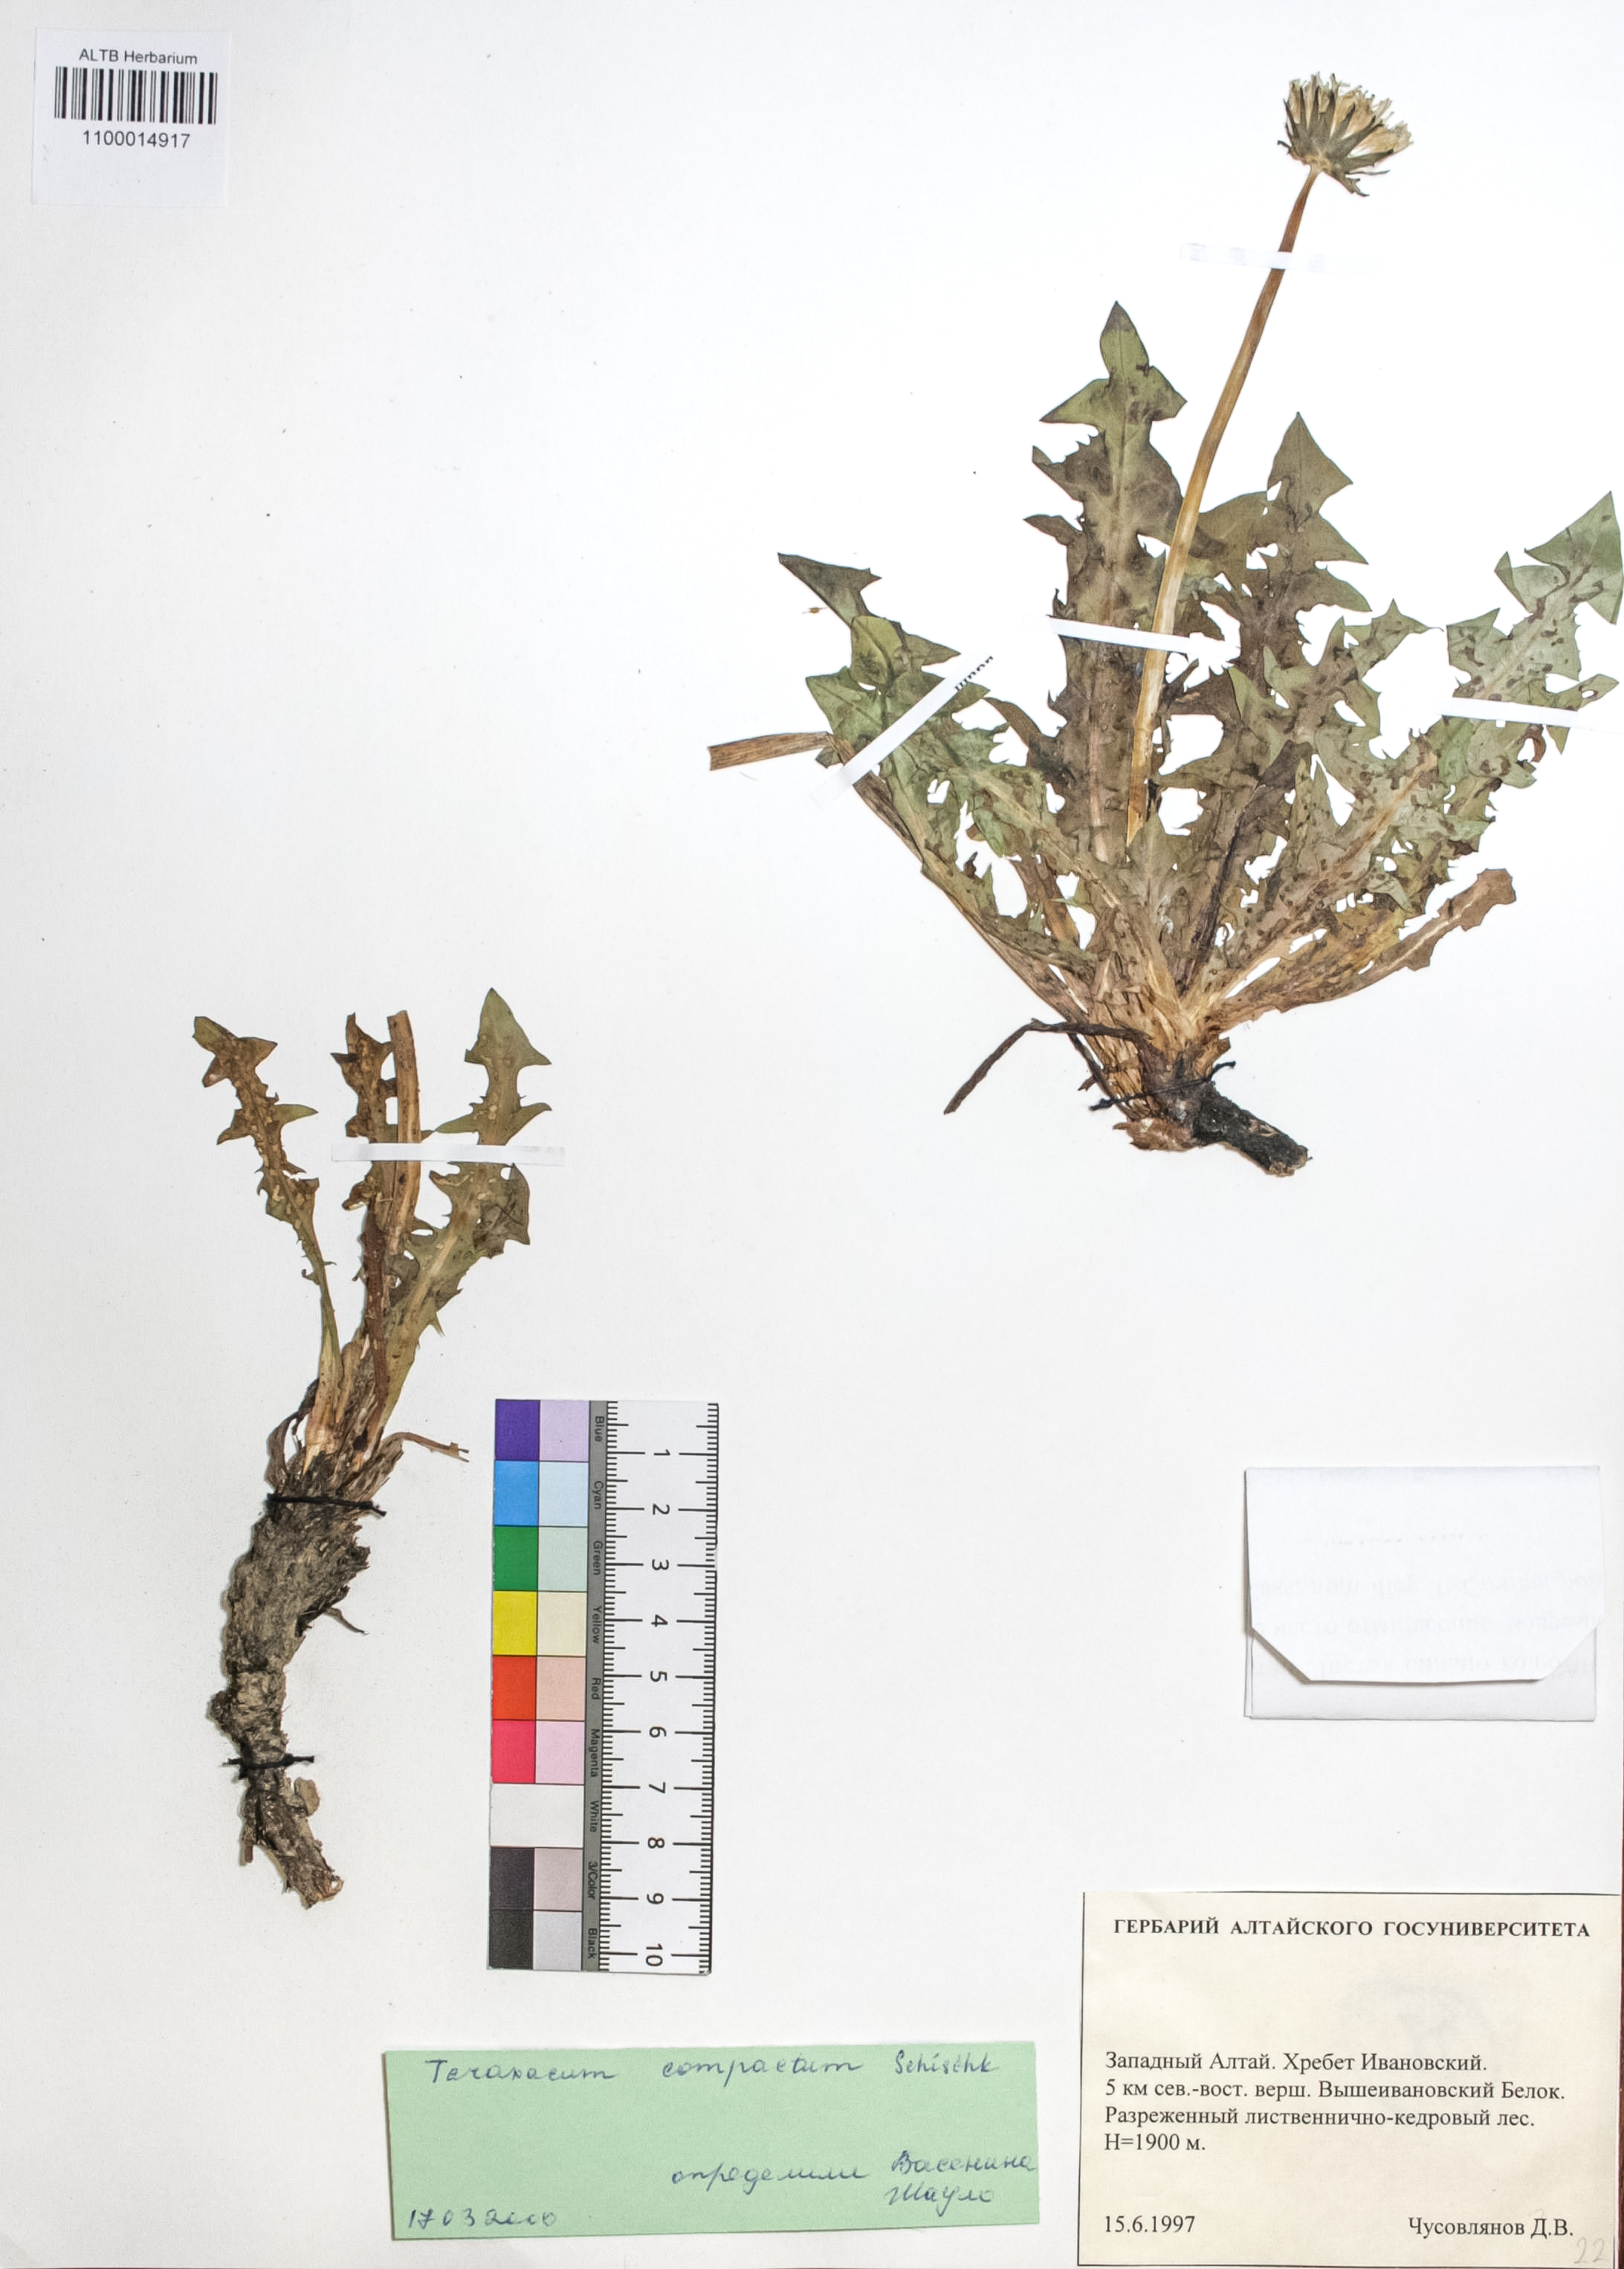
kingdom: Plantae
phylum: Tracheophyta
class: Magnoliopsida
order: Asterales
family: Asteraceae
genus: Taraxacum
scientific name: Taraxacum microspermum
